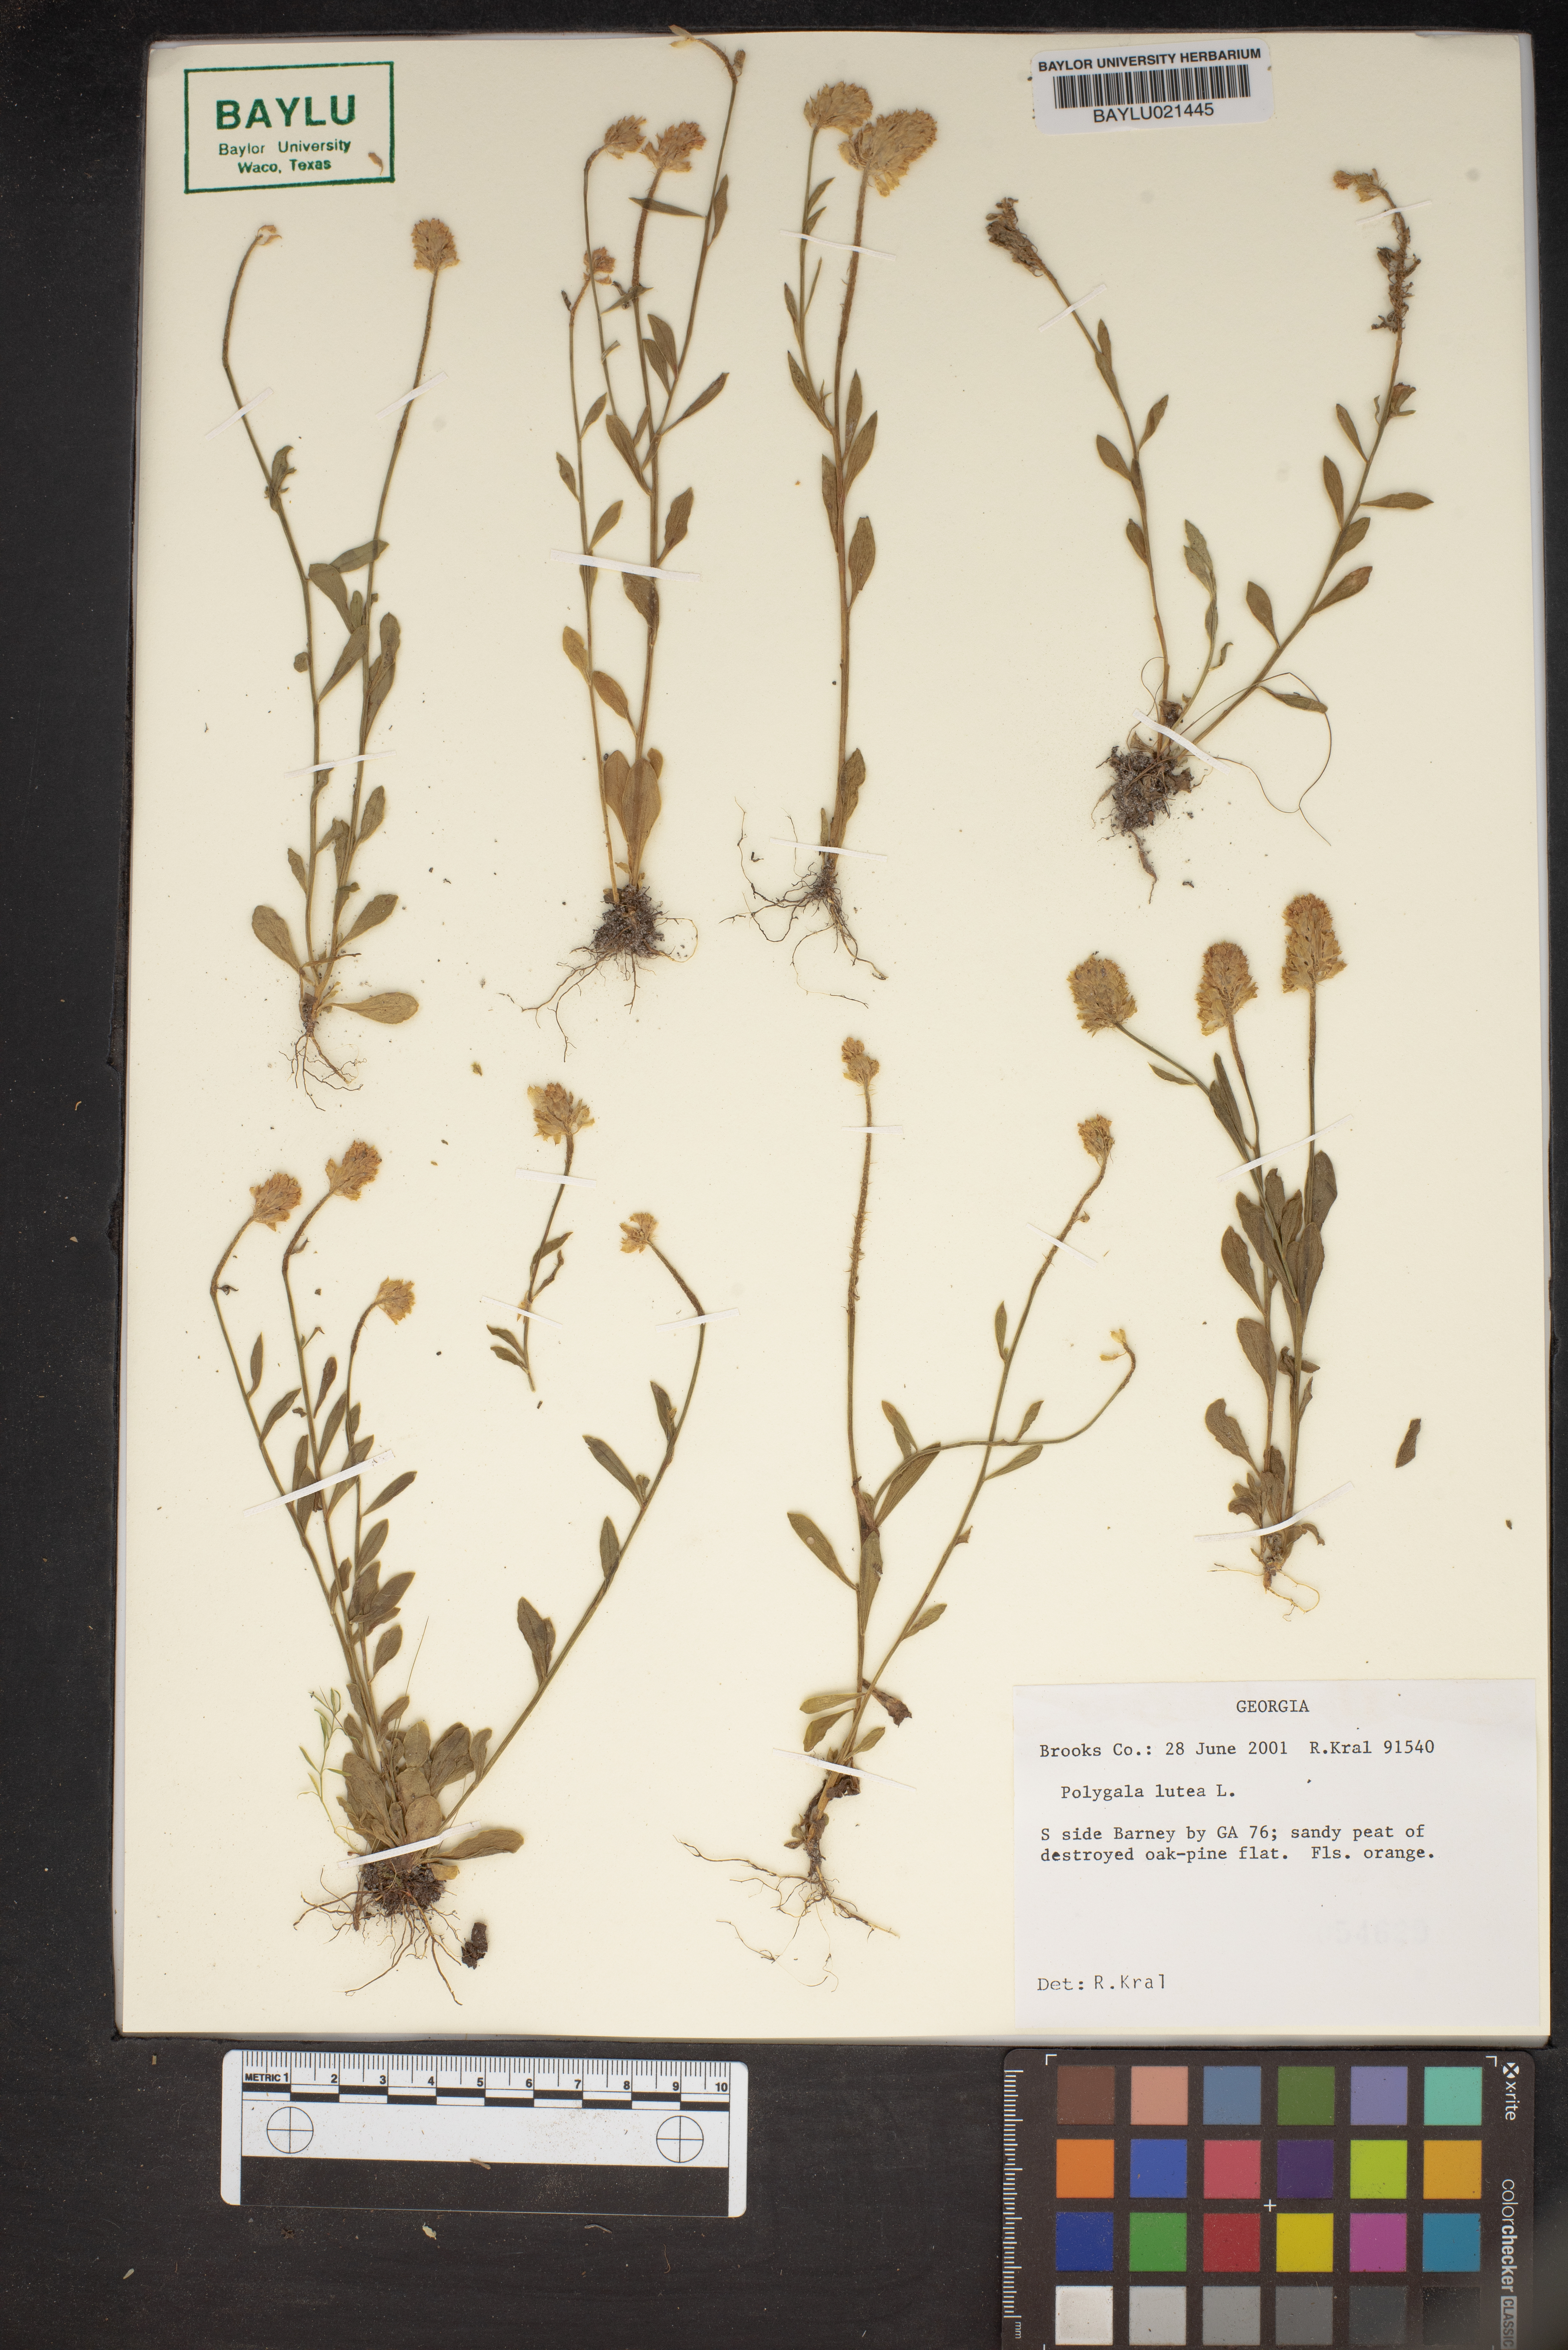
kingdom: Plantae
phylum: Tracheophyta
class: Magnoliopsida
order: Fabales
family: Polygalaceae
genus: Polygala
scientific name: Polygala lutea
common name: Orange milkwort
